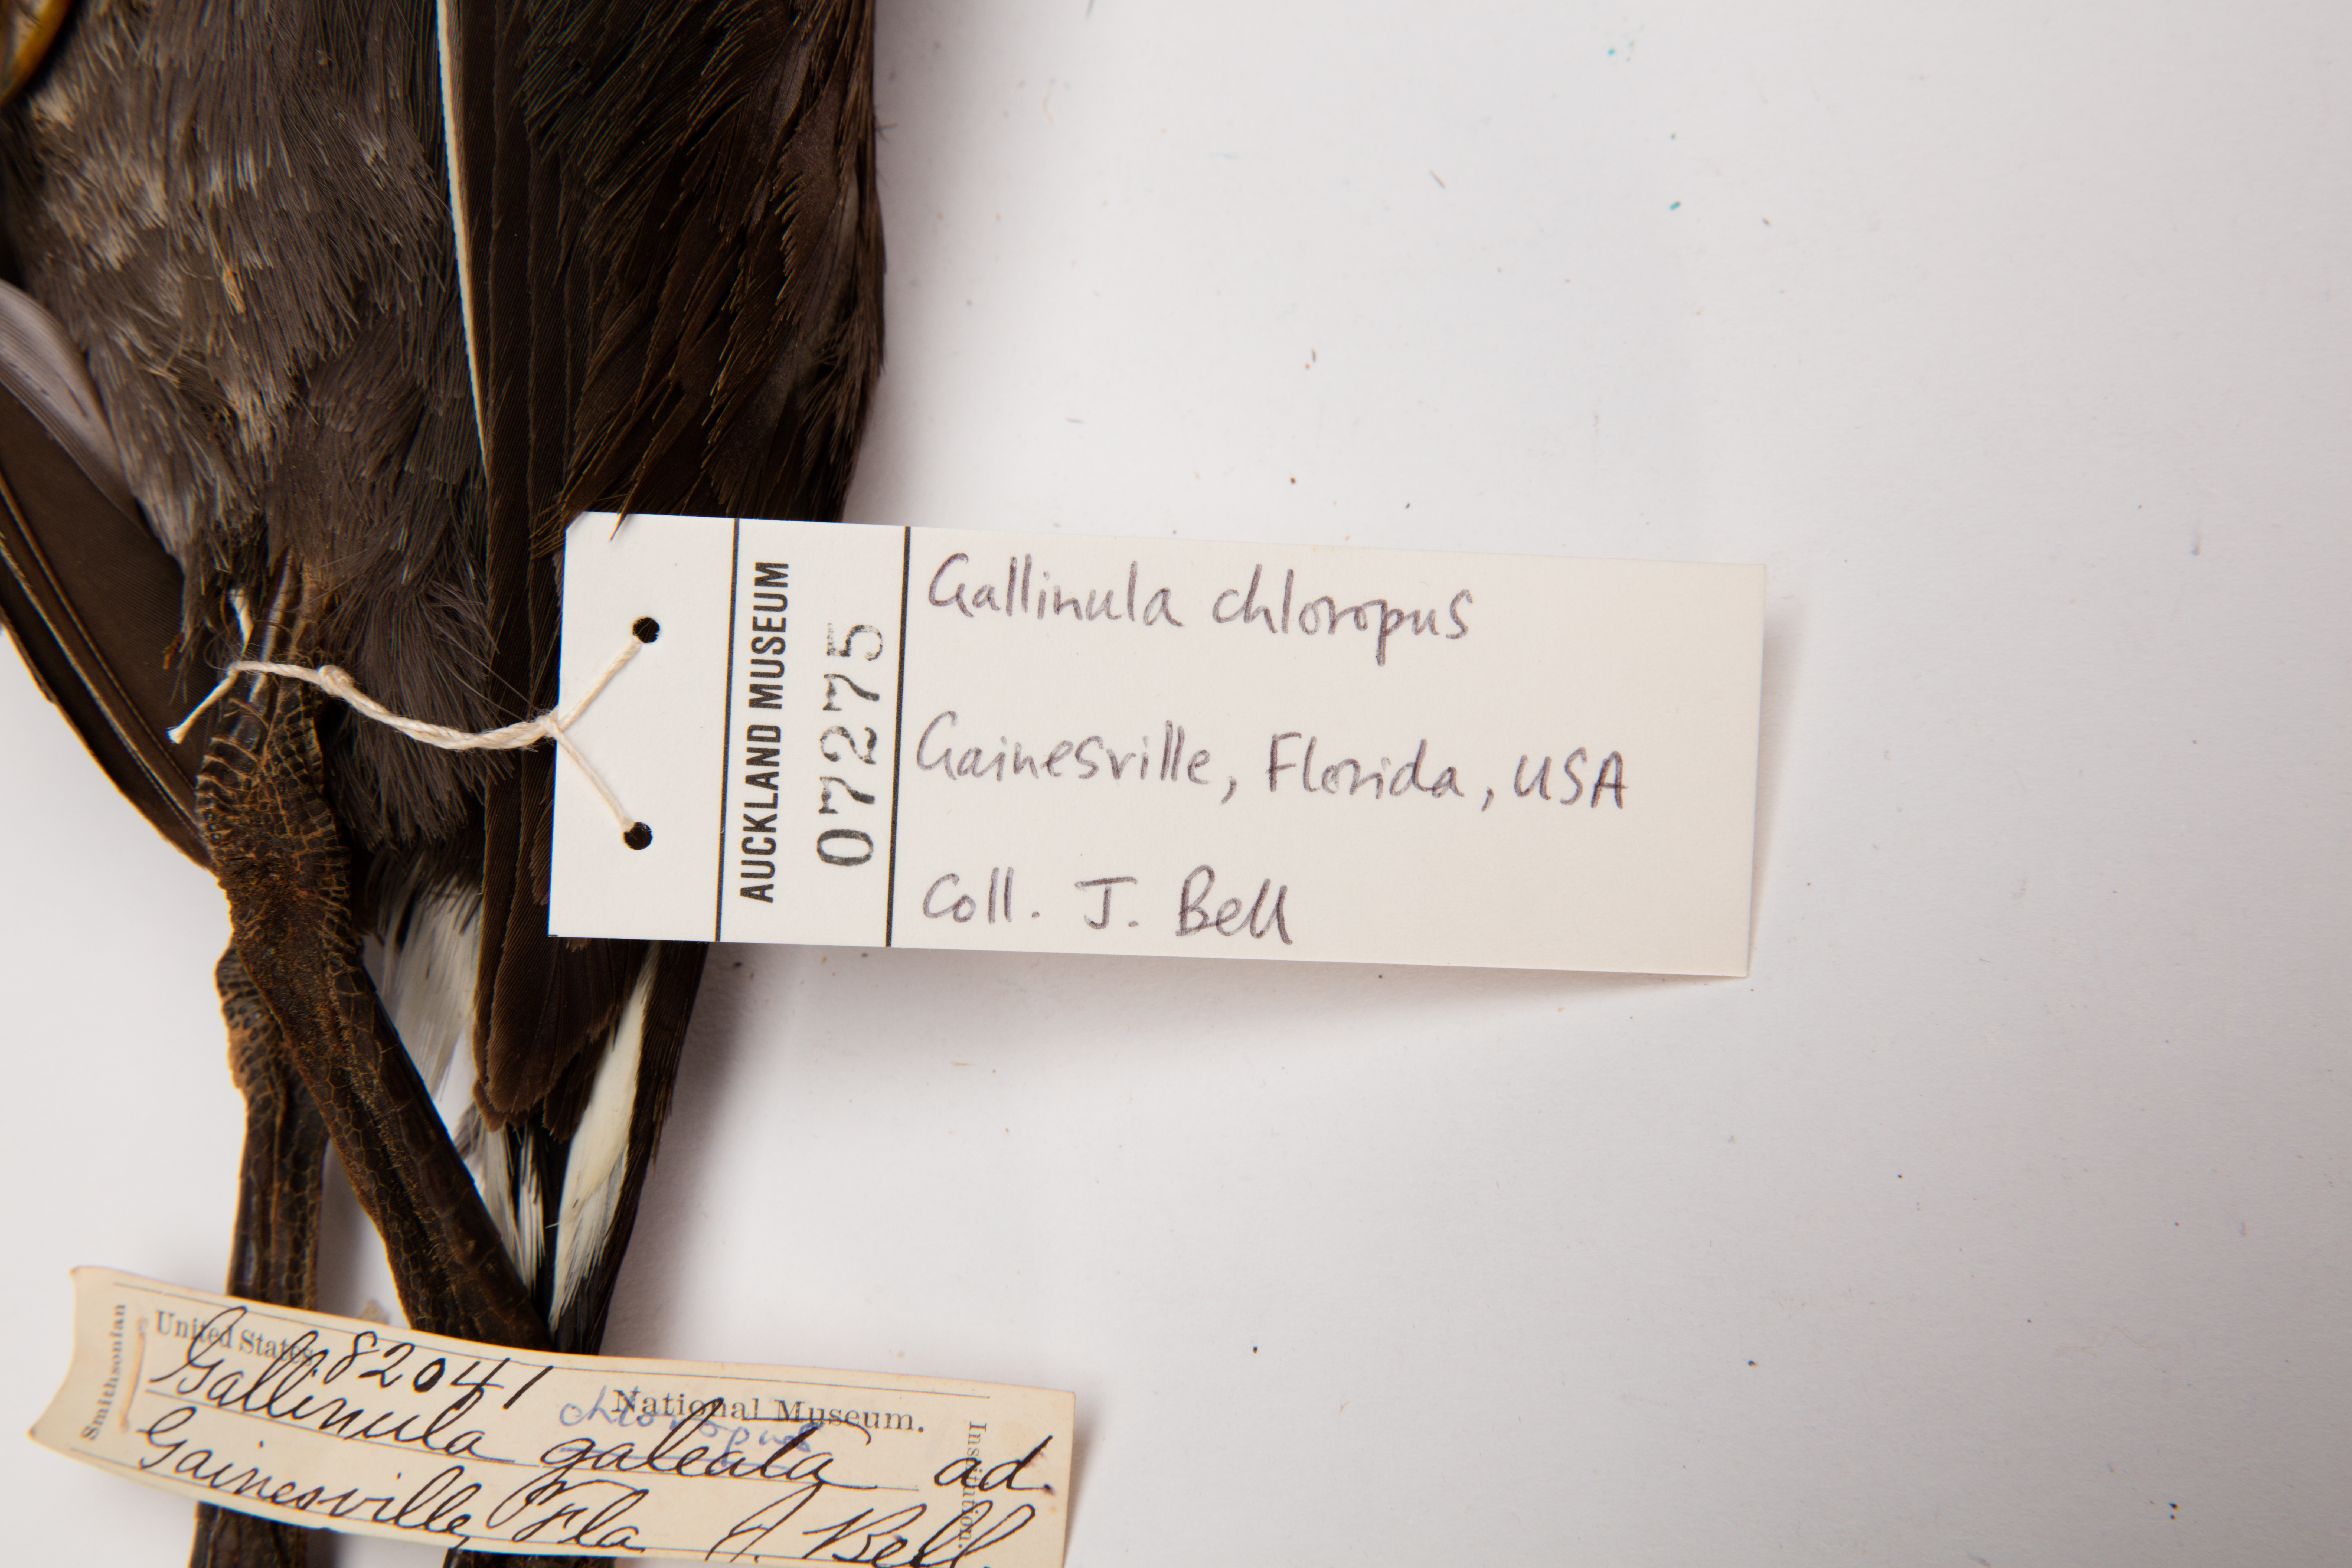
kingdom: Animalia
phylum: Chordata
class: Aves
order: Gruiformes
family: Rallidae
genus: Gallinula
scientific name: Gallinula chloropus
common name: Common moorhen
